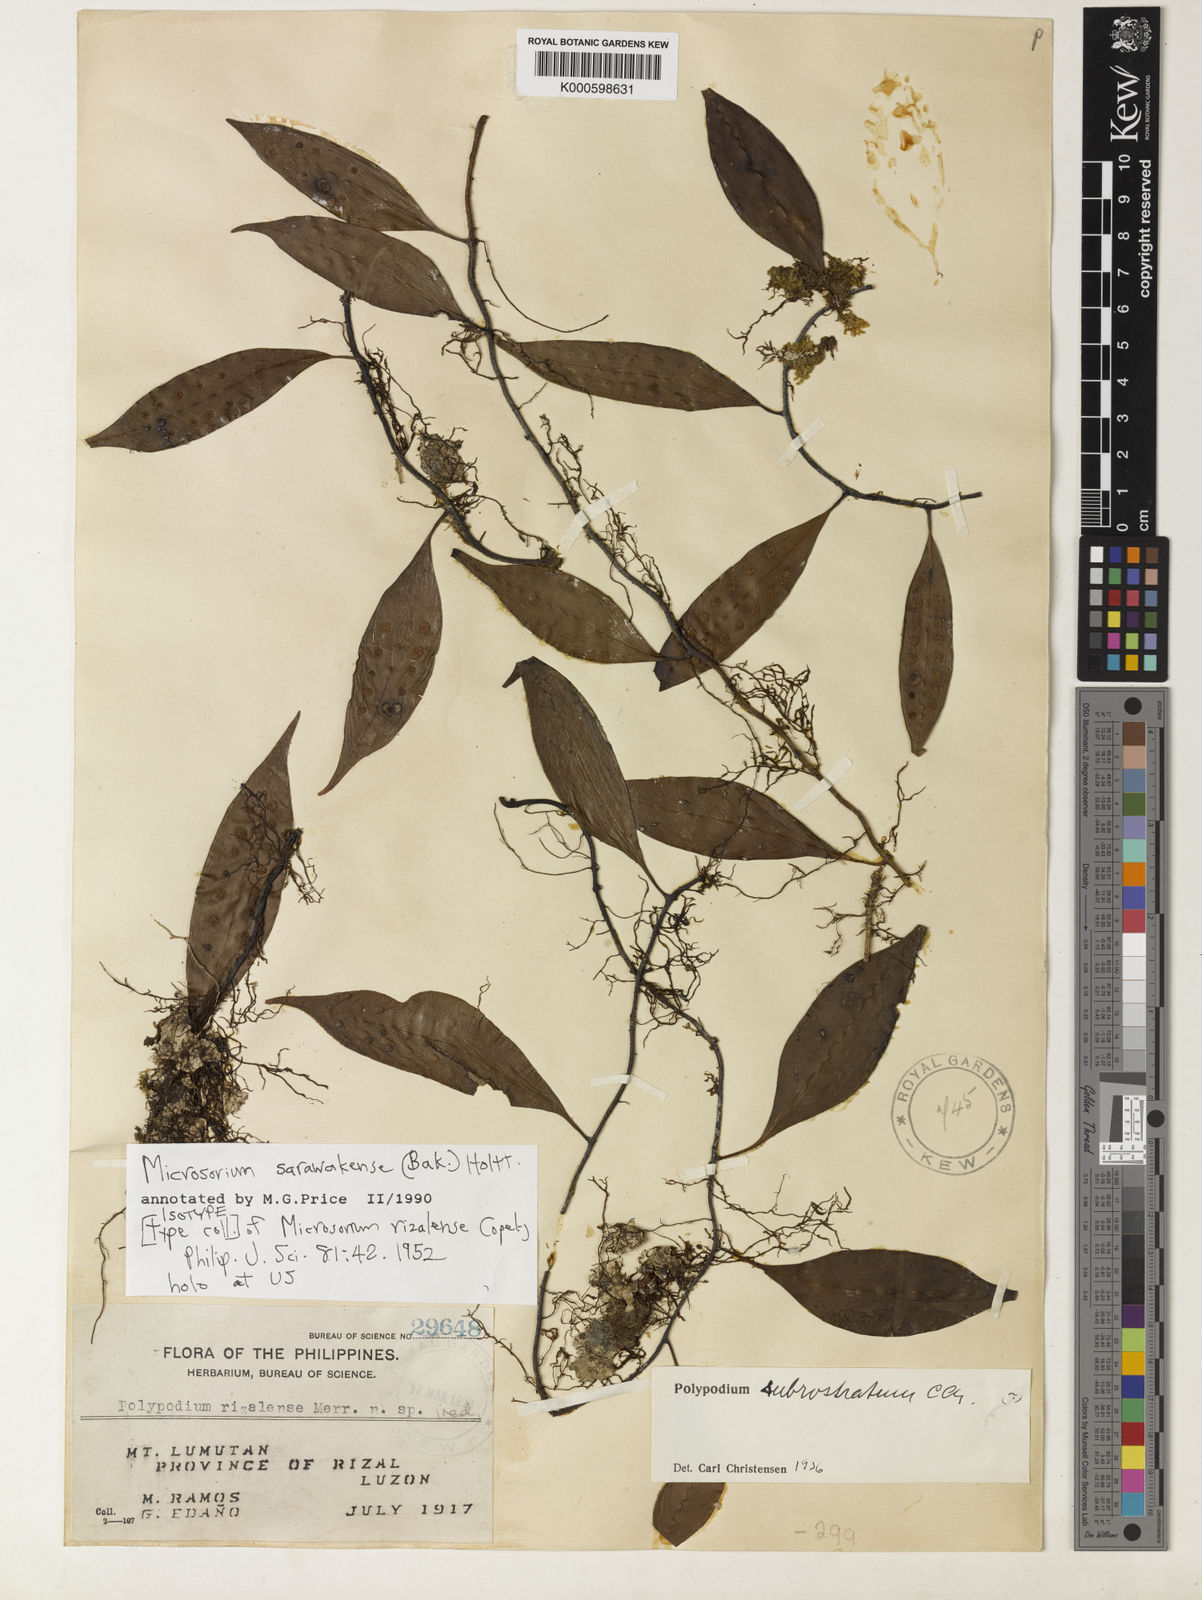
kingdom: Plantae
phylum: Tracheophyta
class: Polypodiopsida
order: Polypodiales
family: Polypodiaceae
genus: Microsorum
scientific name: Microsorum sarawakense
